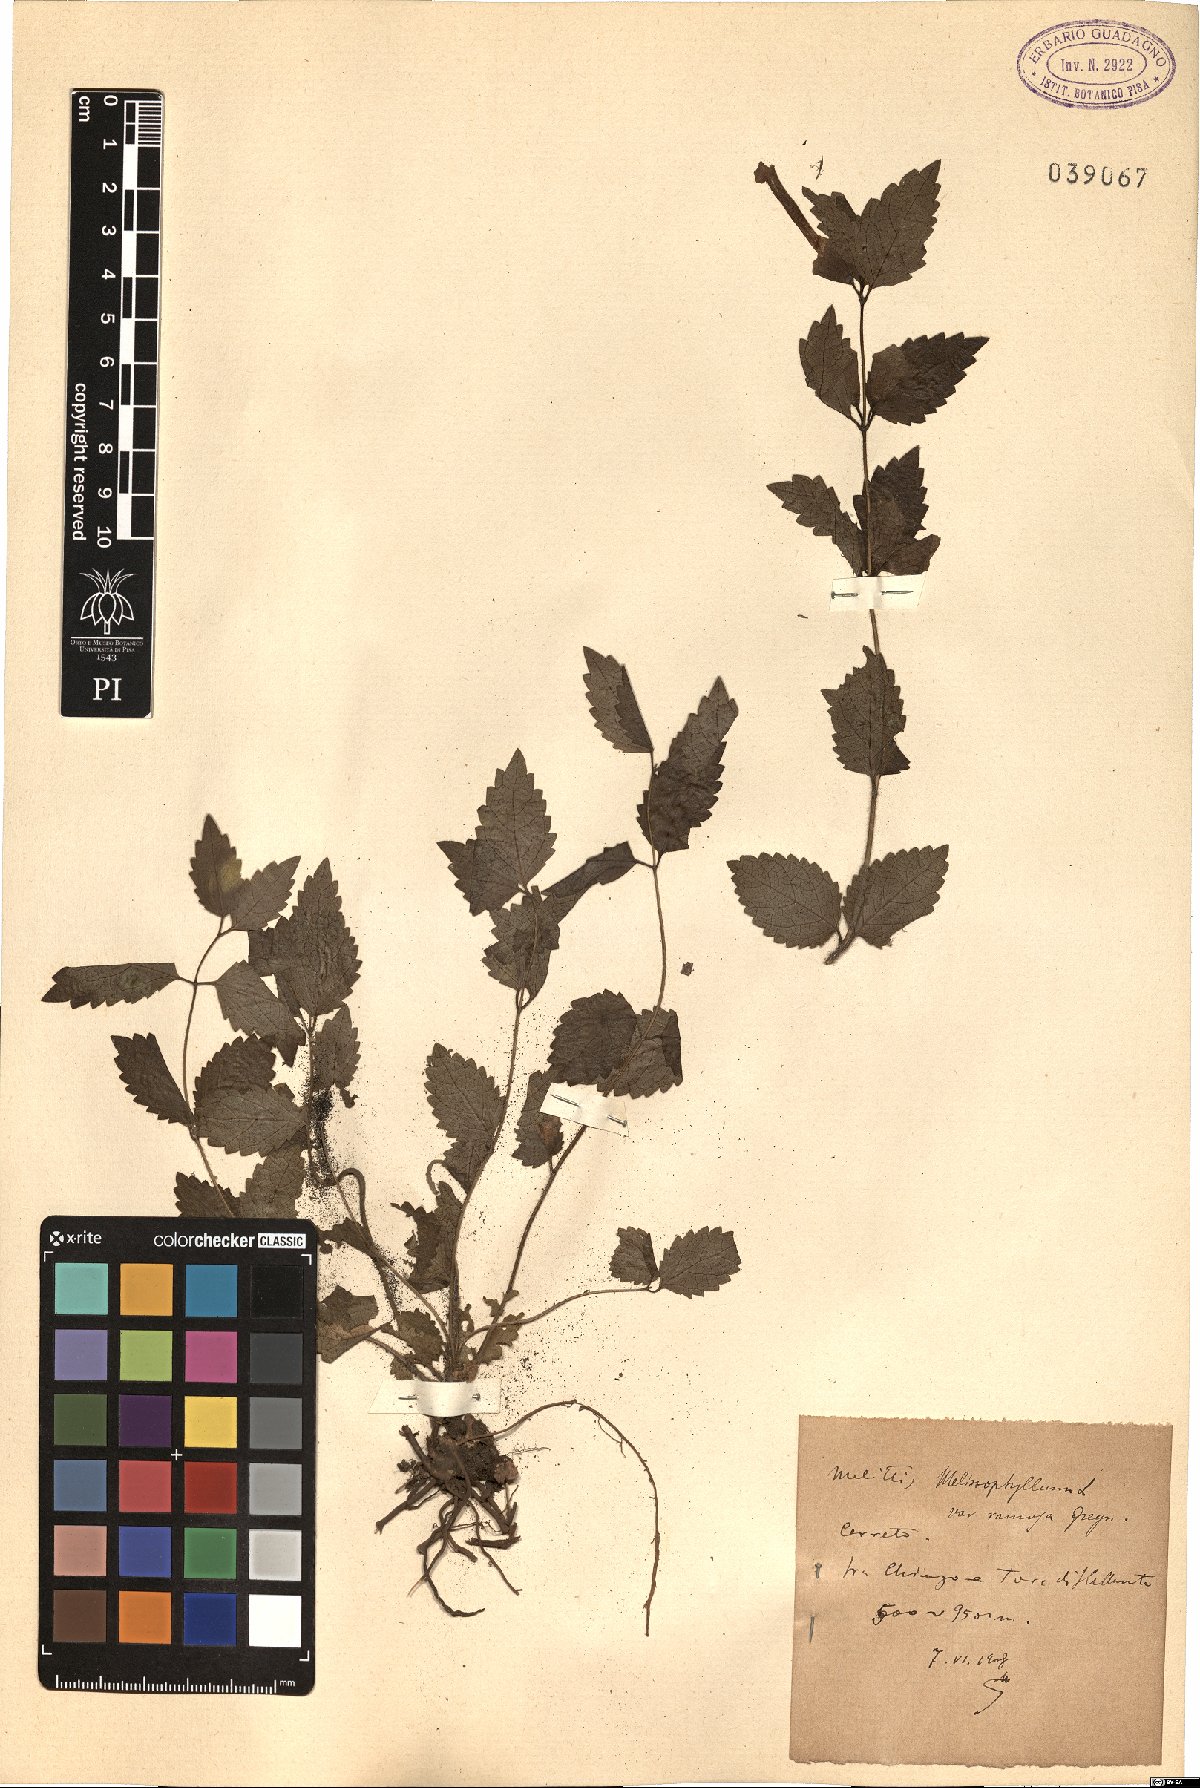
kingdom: Plantae
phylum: Tracheophyta
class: Magnoliopsida
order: Lamiales
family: Lamiaceae
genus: Melittis
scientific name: Melittis melissophyllum
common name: Bastard balm
